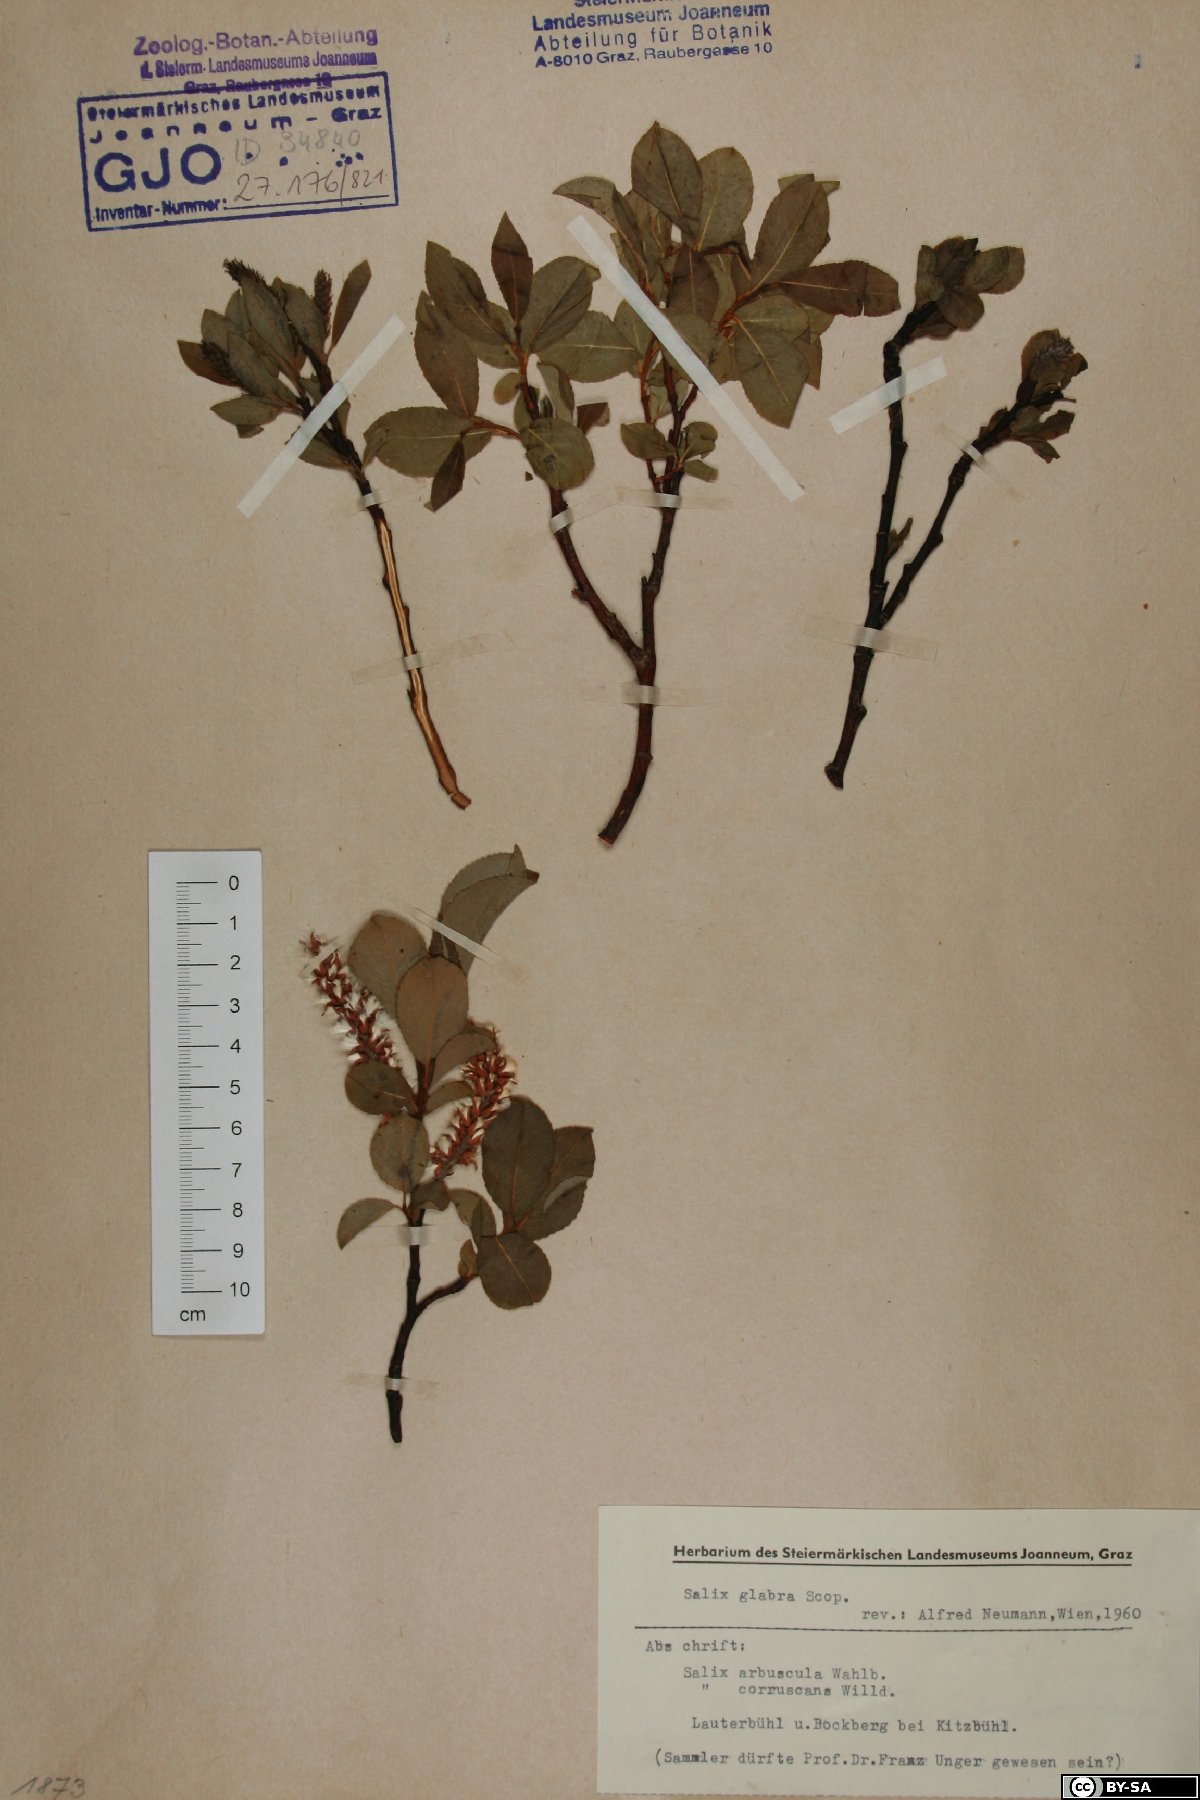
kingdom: Plantae
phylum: Tracheophyta
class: Magnoliopsida
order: Malpighiales
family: Salicaceae
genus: Salix
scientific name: Salix glabra
